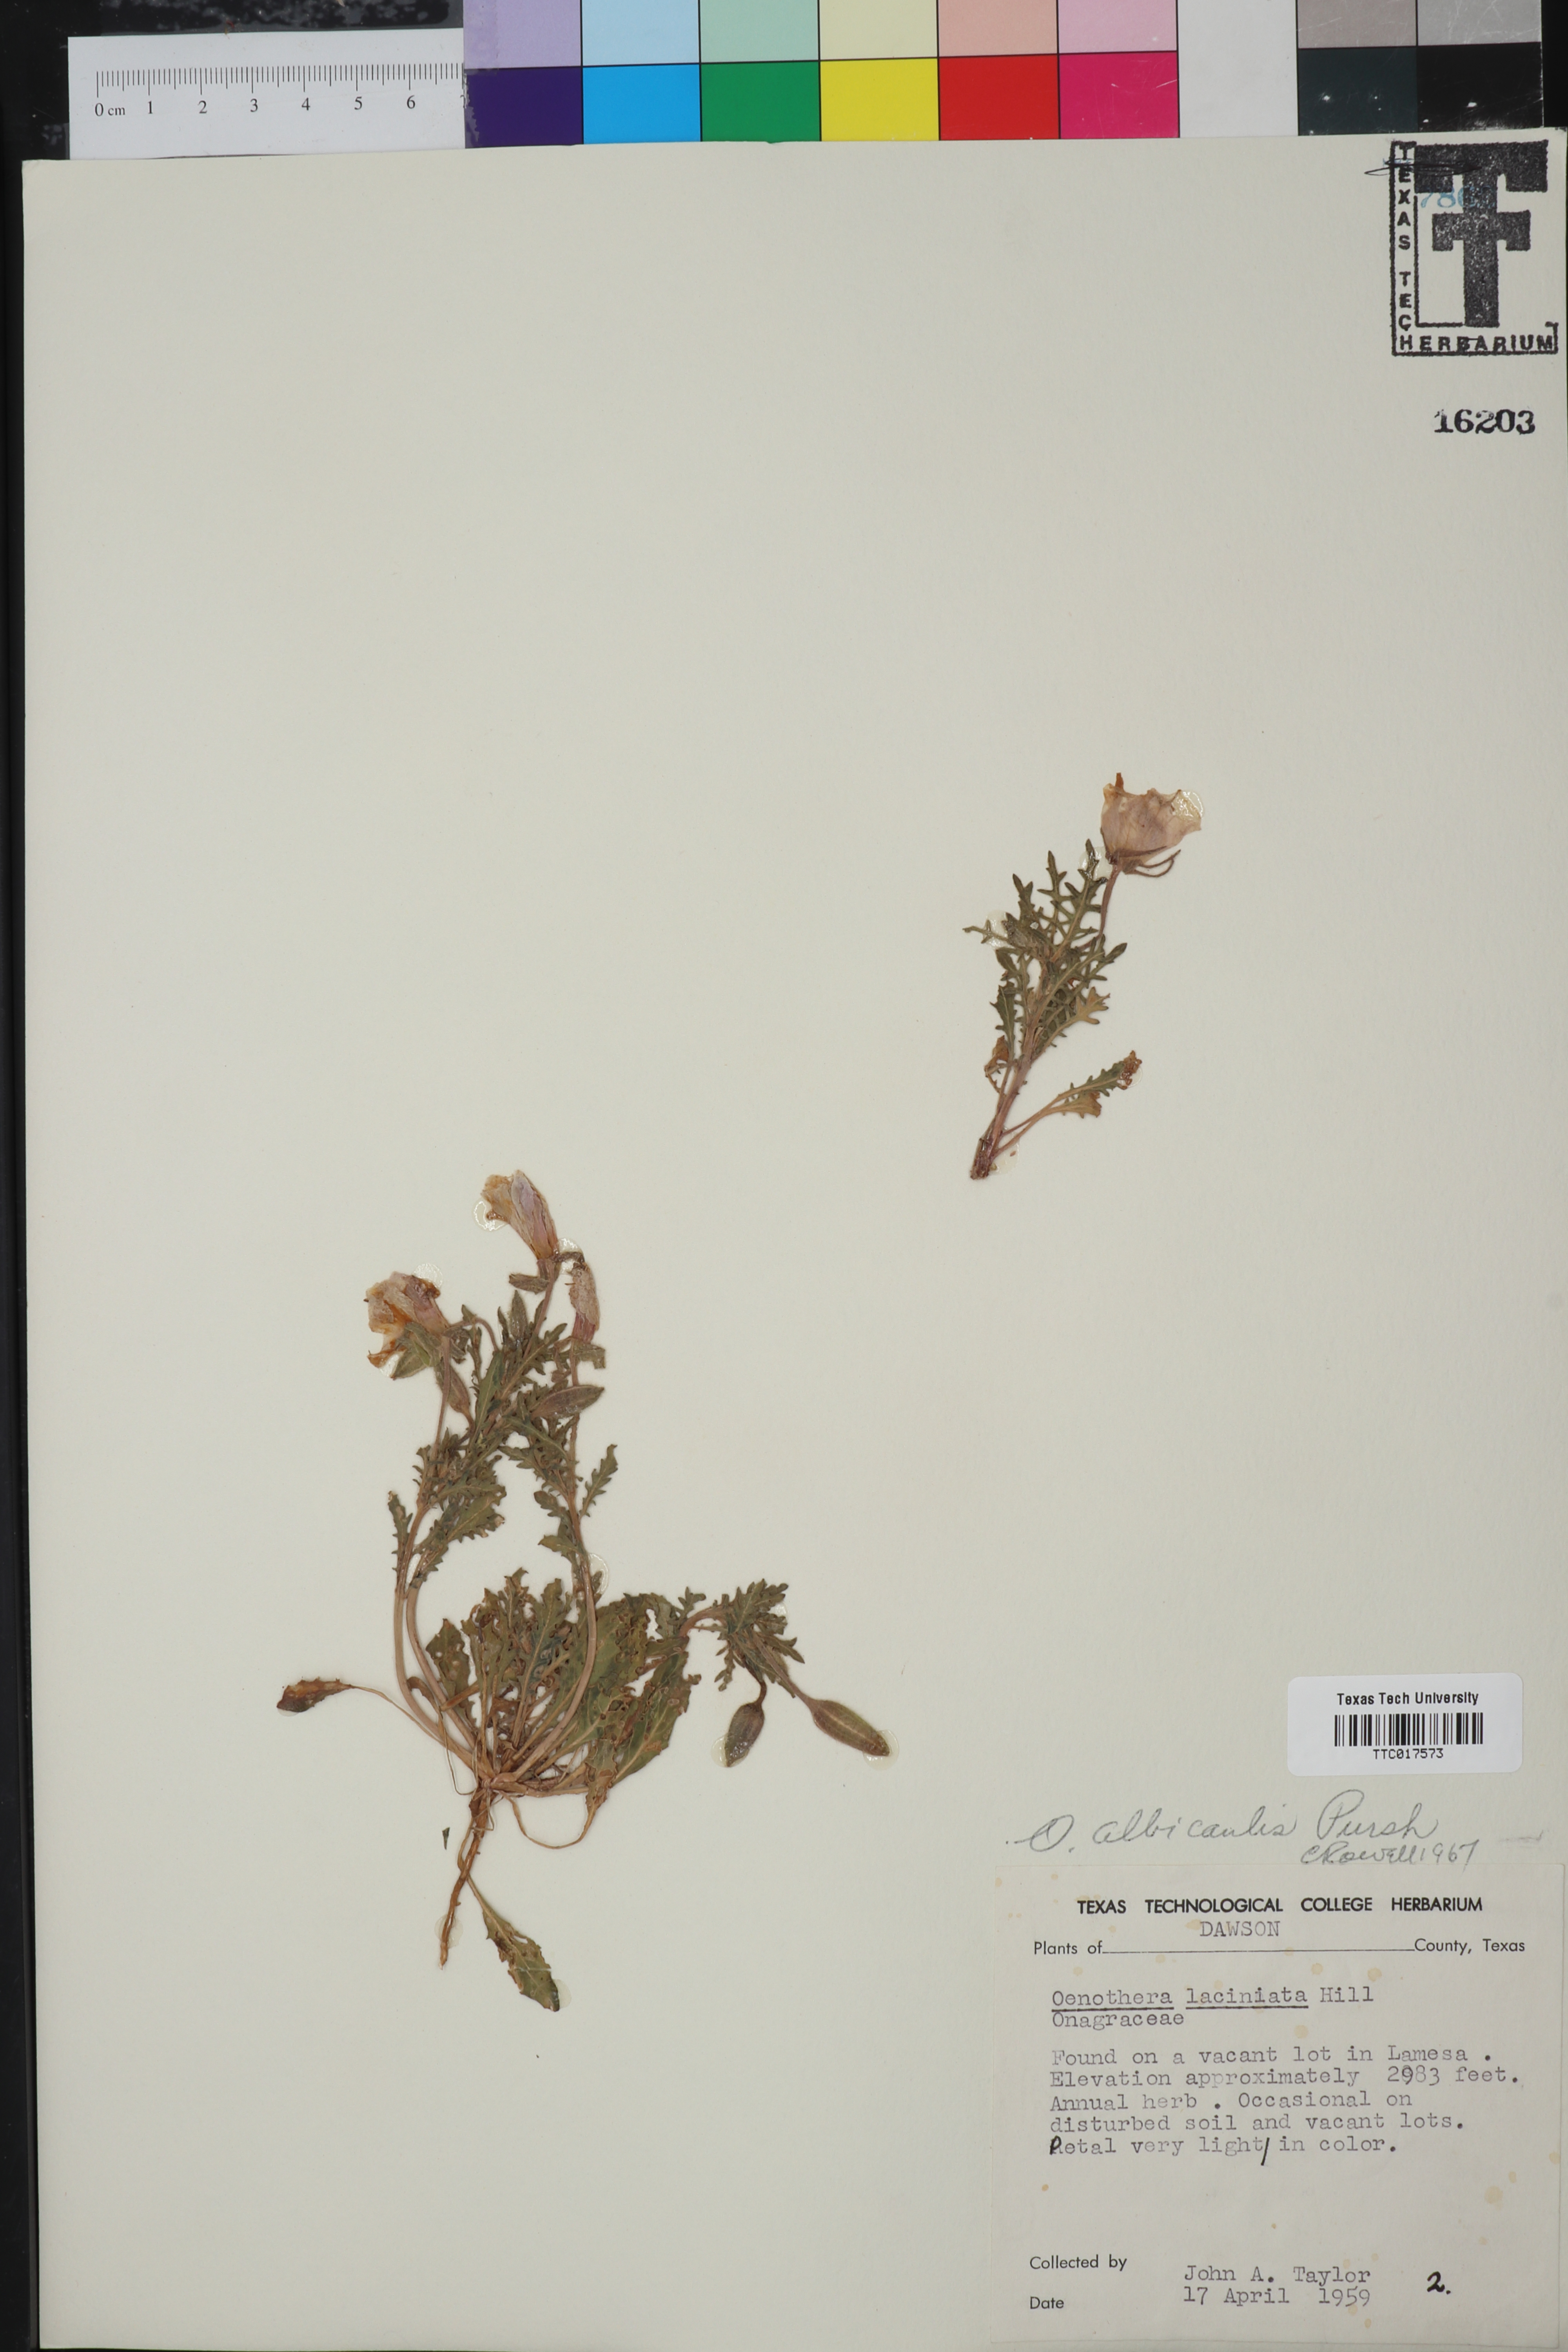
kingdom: Plantae
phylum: Tracheophyta
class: Magnoliopsida
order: Myrtales
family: Onagraceae
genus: Oenothera
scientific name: Oenothera albicaulis
